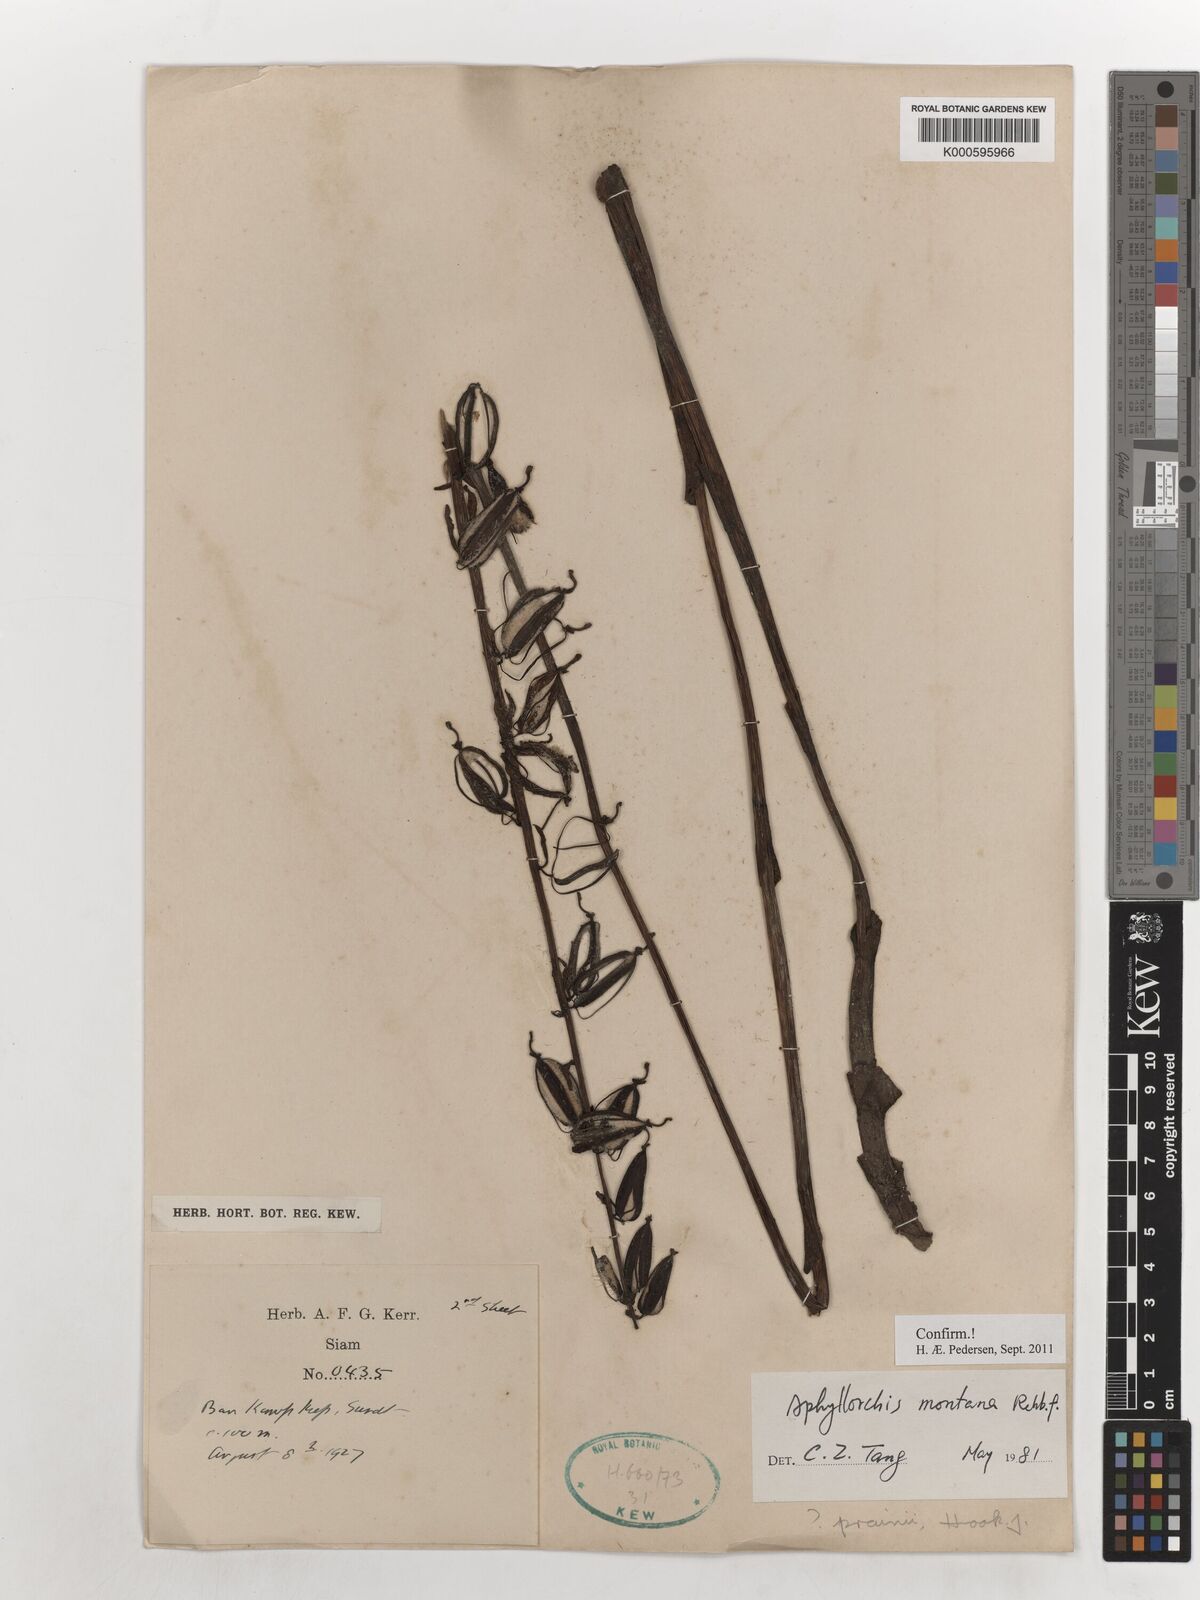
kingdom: Plantae
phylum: Tracheophyta
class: Liliopsida
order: Asparagales
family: Orchidaceae
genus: Aphyllorchis
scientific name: Aphyllorchis montana
